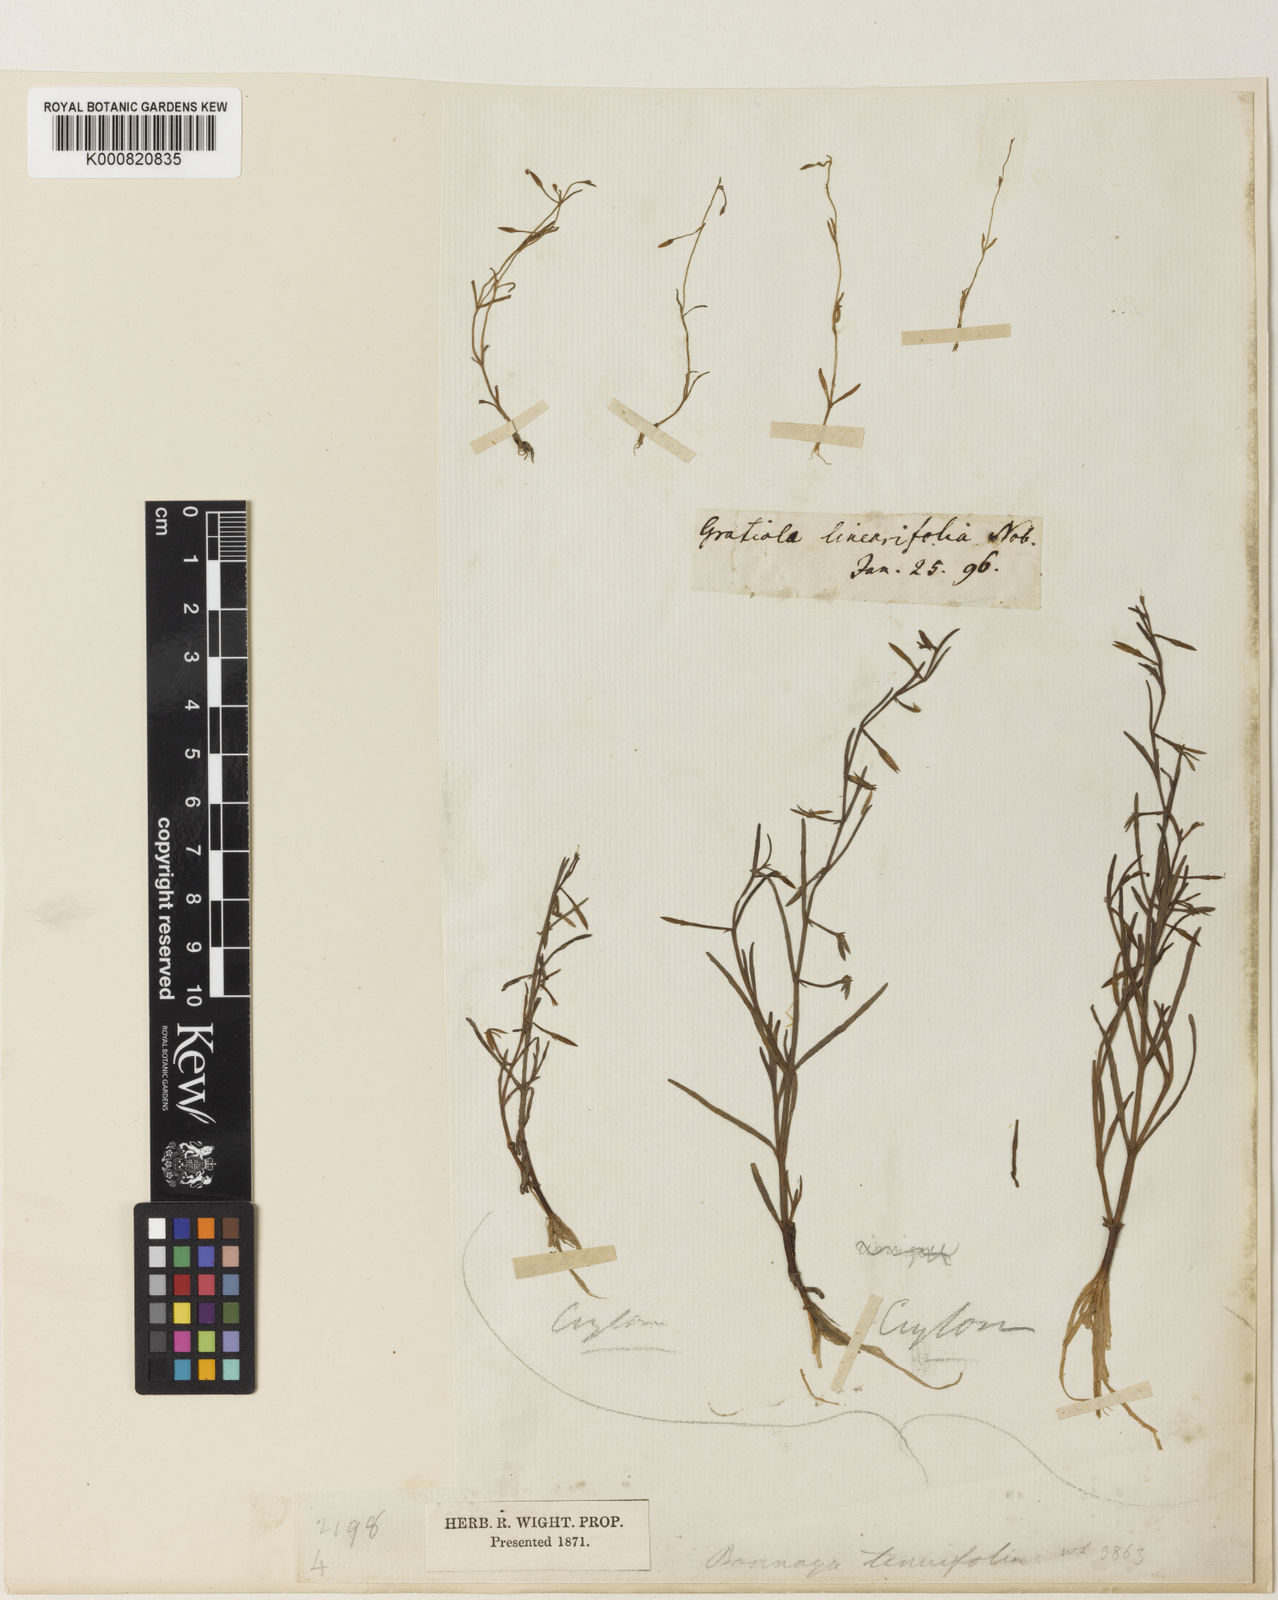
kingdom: Plantae
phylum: Tracheophyta
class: Magnoliopsida
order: Lamiales
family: Plantaginaceae
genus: Gratiola
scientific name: Gratiola
